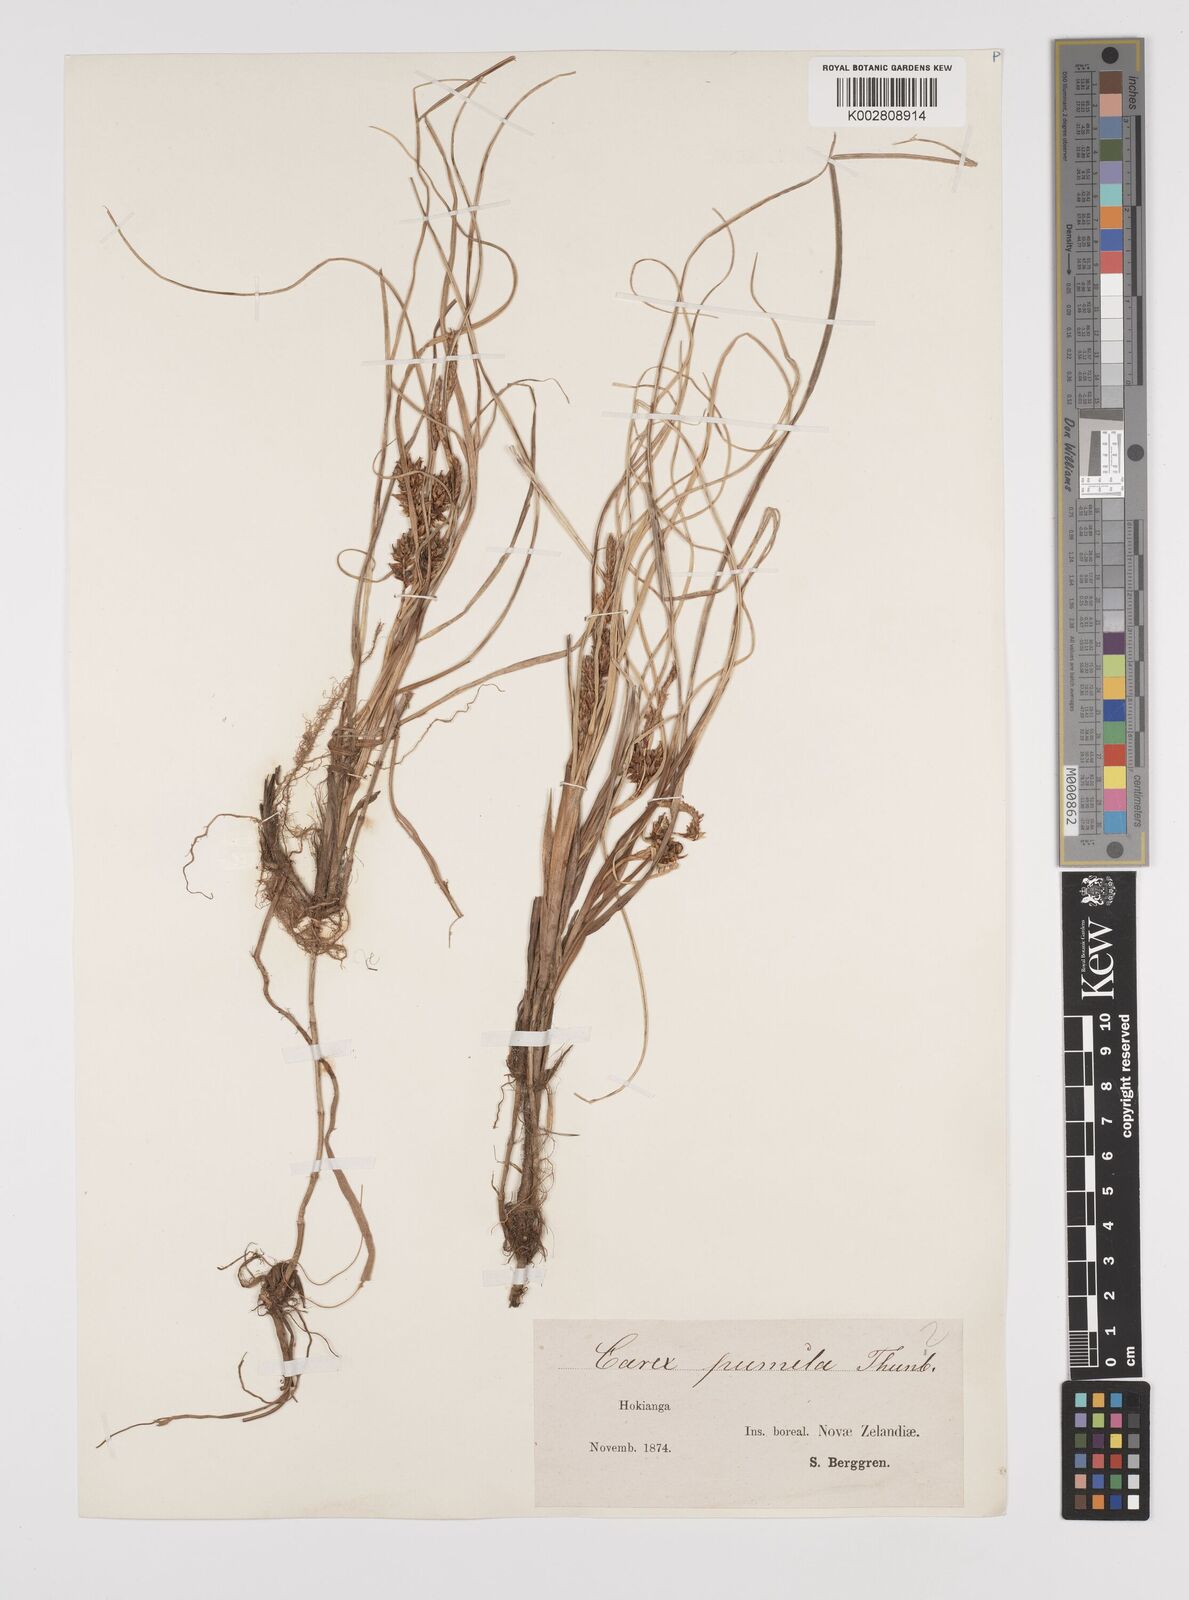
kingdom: Plantae
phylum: Tracheophyta
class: Liliopsida
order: Poales
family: Cyperaceae
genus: Carex
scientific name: Carex pumila
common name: Dwarf sedge
